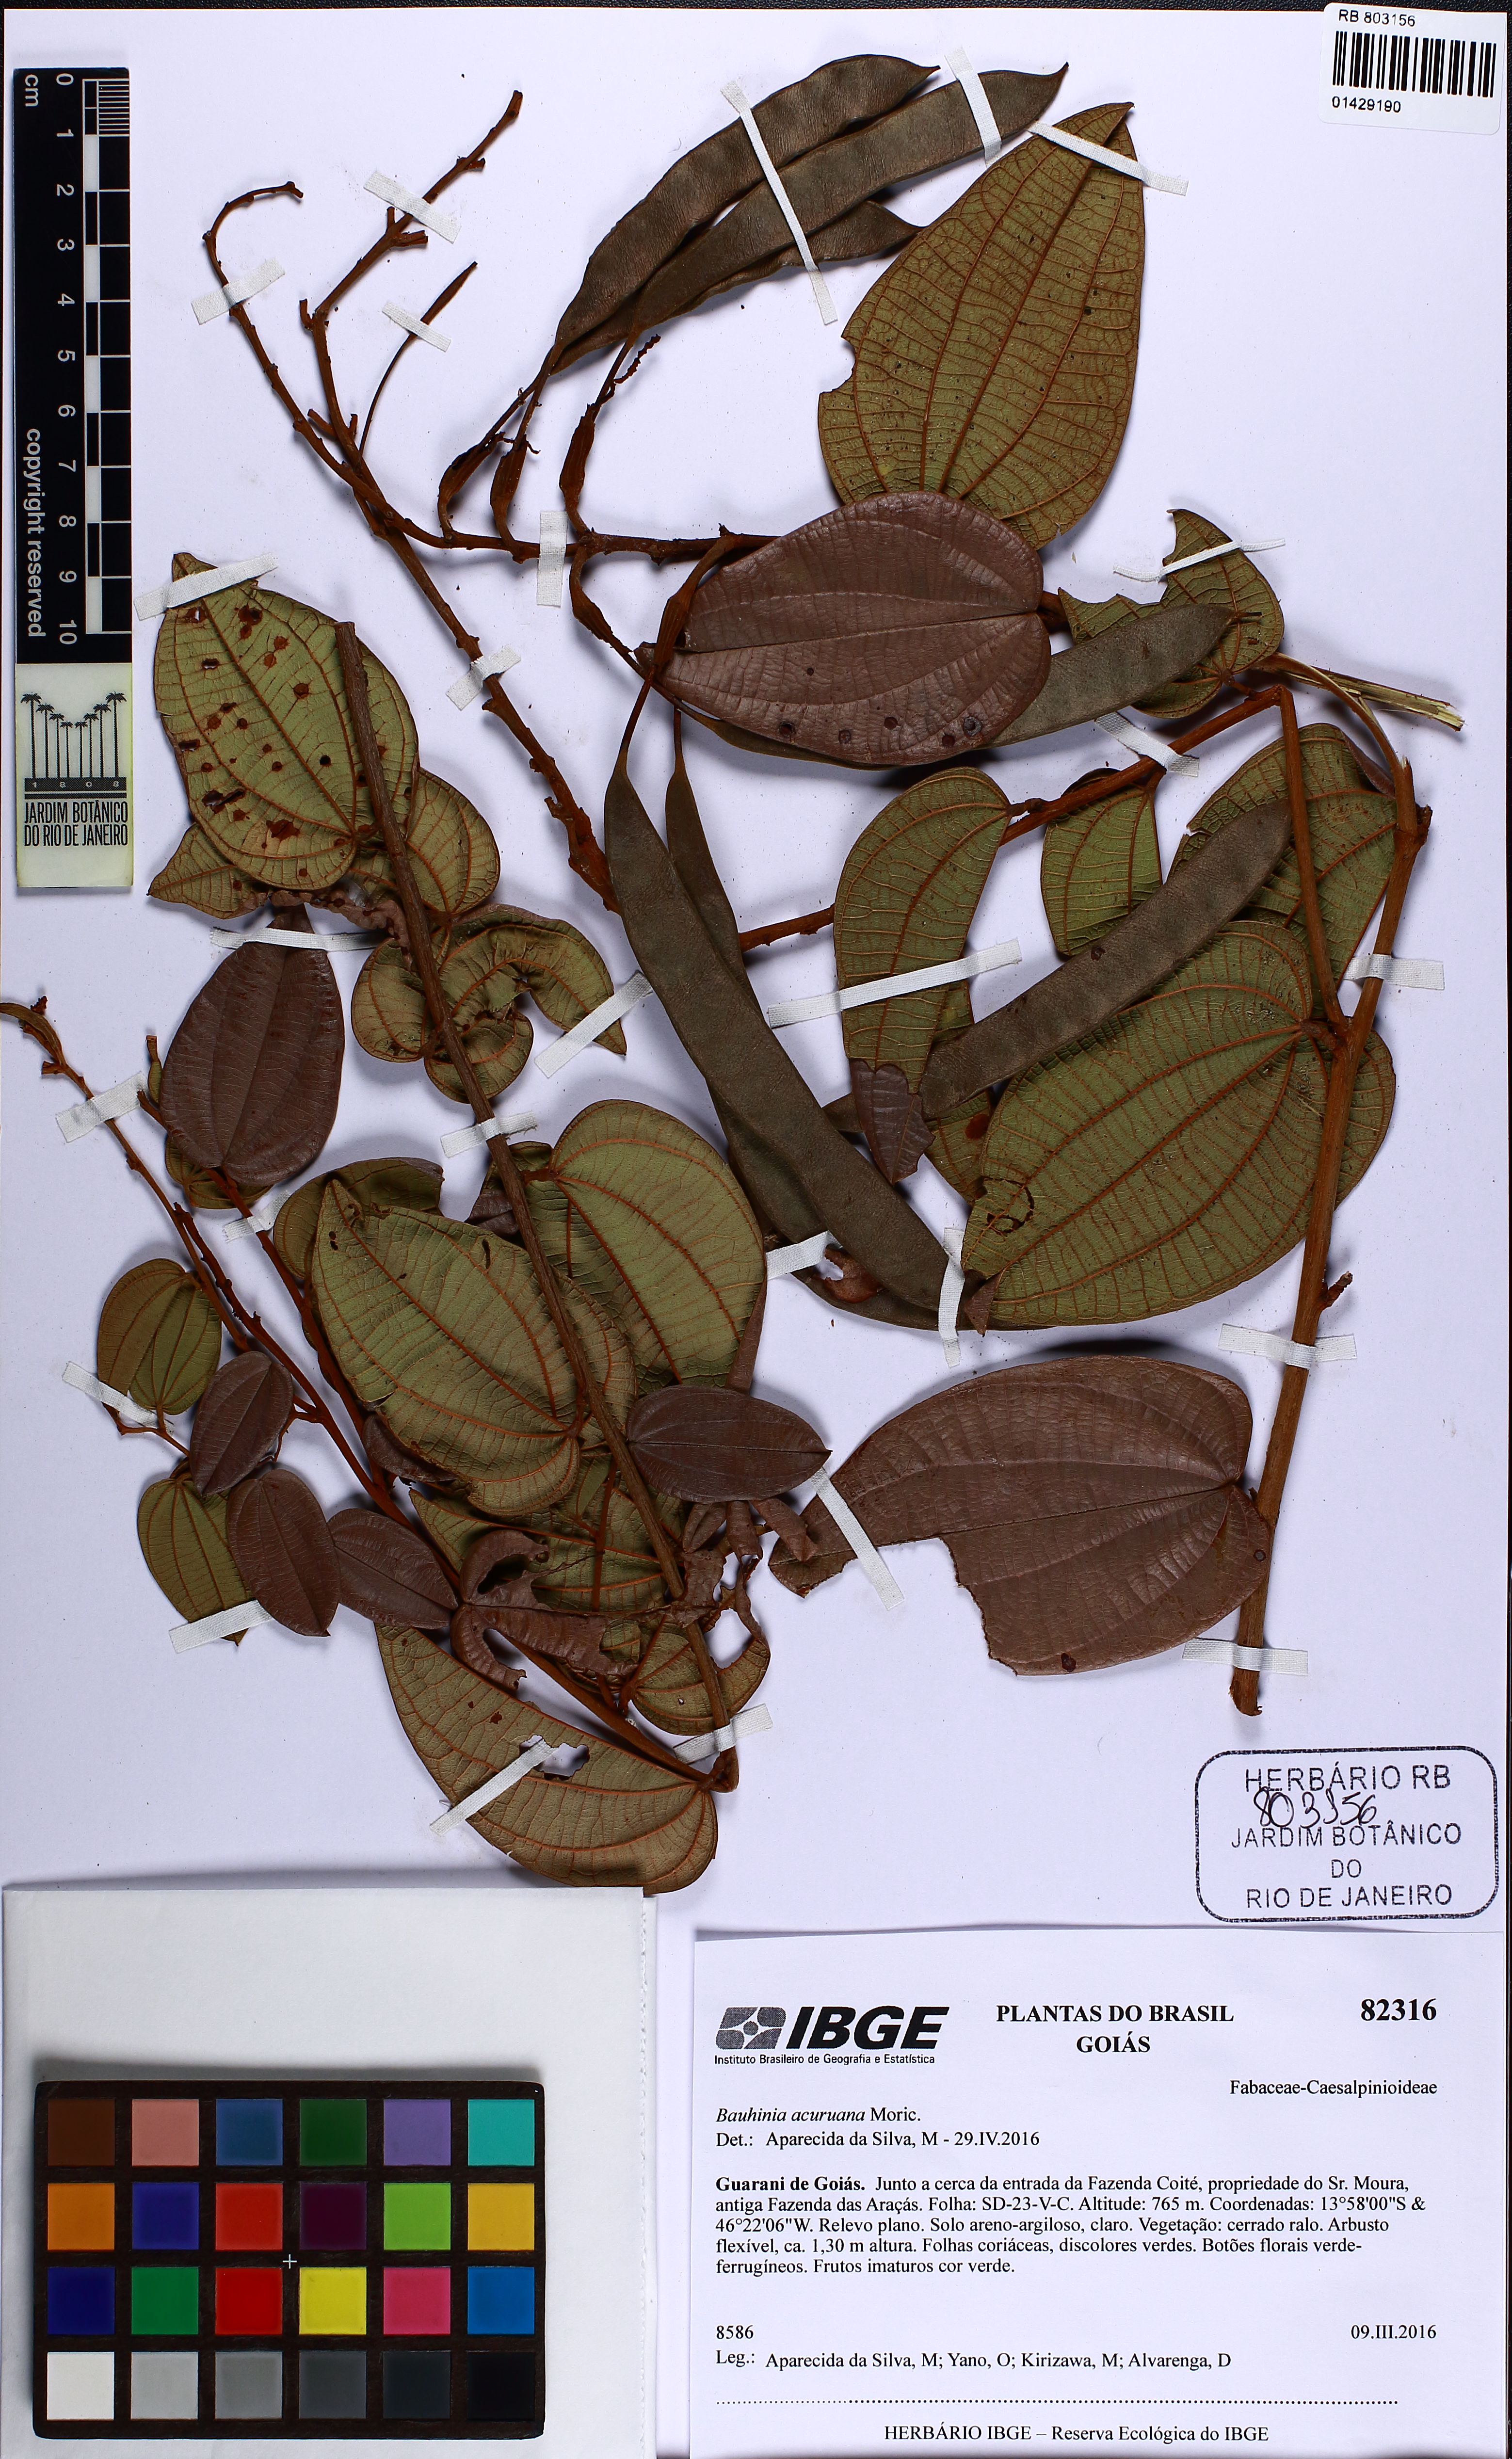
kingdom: Plantae
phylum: Tracheophyta
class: Magnoliopsida
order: Fabales
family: Fabaceae
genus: Bauhinia
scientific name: Bauhinia acuruana
